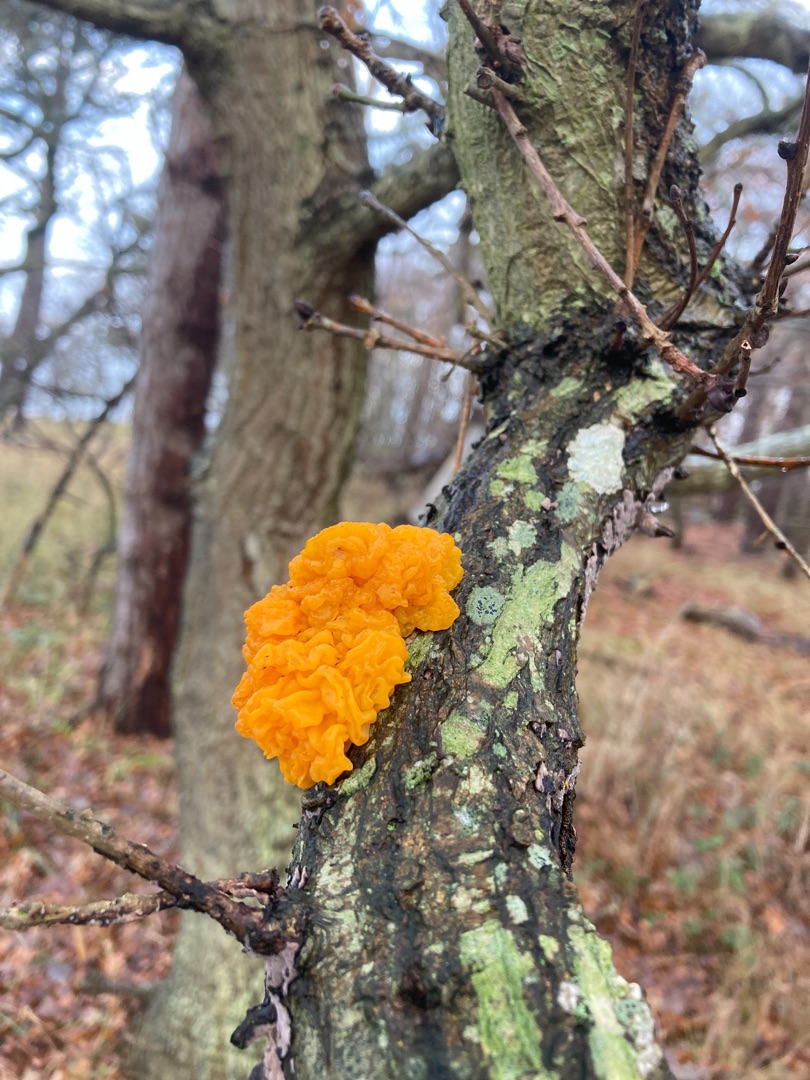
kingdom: Fungi
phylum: Basidiomycota
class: Tremellomycetes
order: Tremellales
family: Tremellaceae
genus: Tremella
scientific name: Tremella mesenterica
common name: Gul bævresvamp
